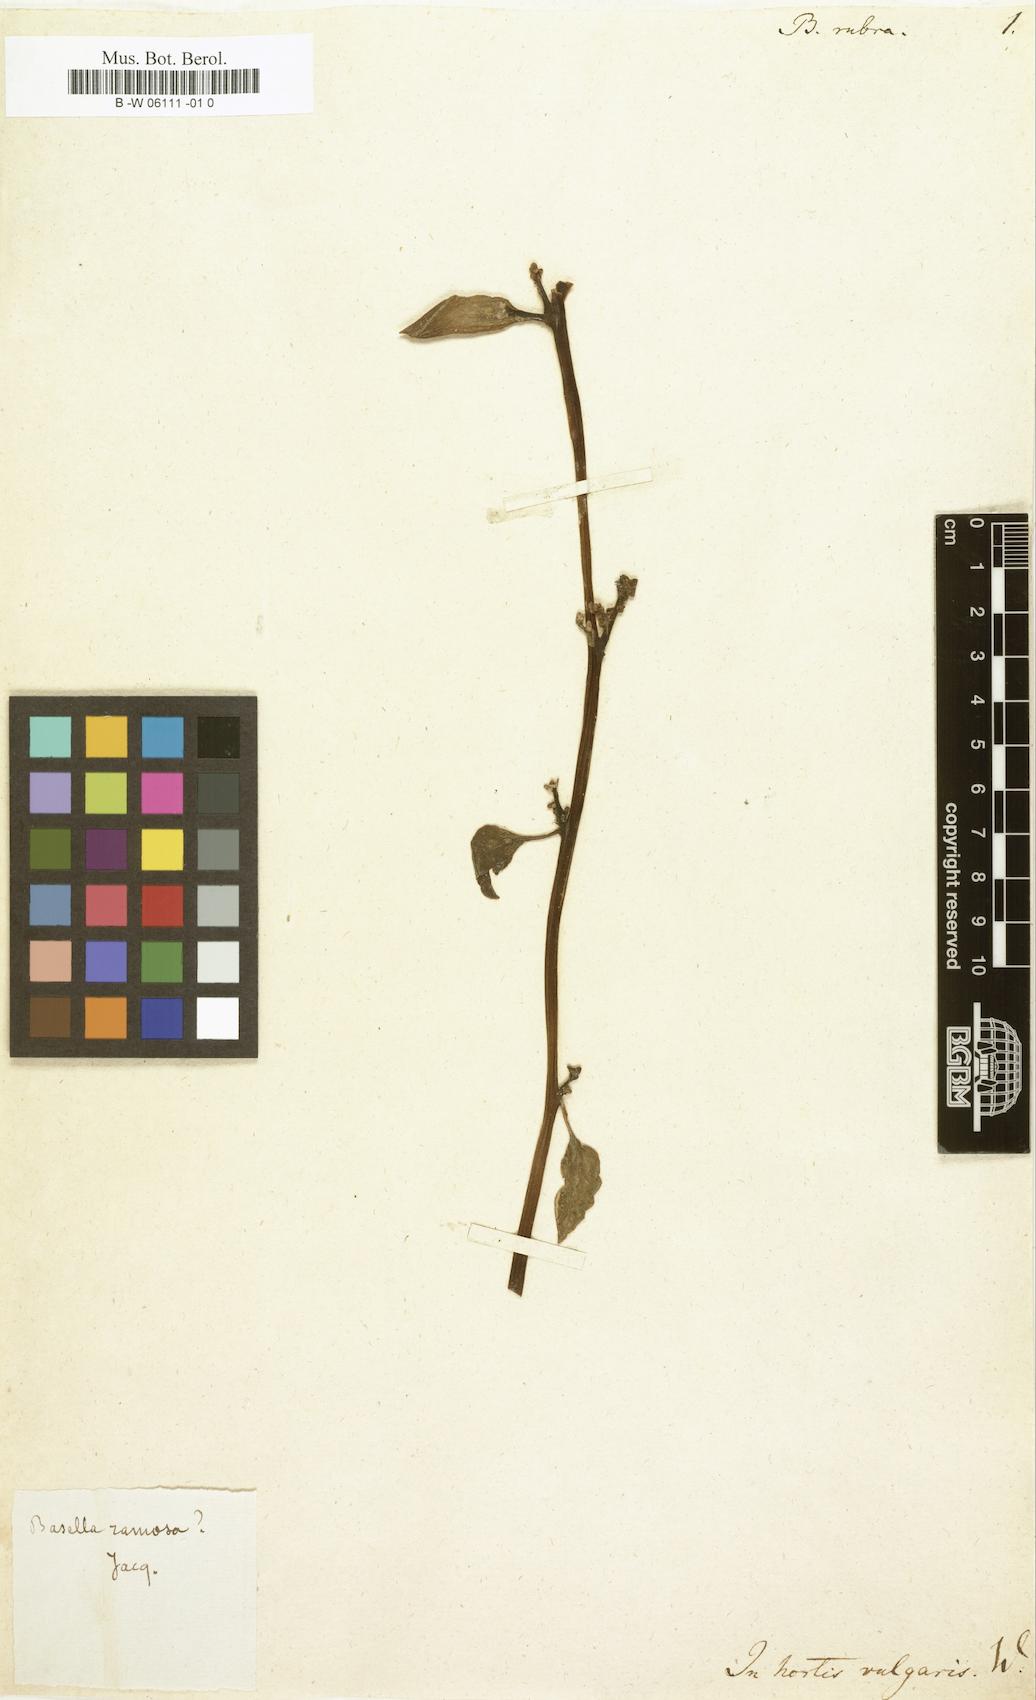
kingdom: Plantae
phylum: Tracheophyta
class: Magnoliopsida
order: Caryophyllales
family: Basellaceae
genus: Basella
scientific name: Basella alba
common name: Indian spinach
